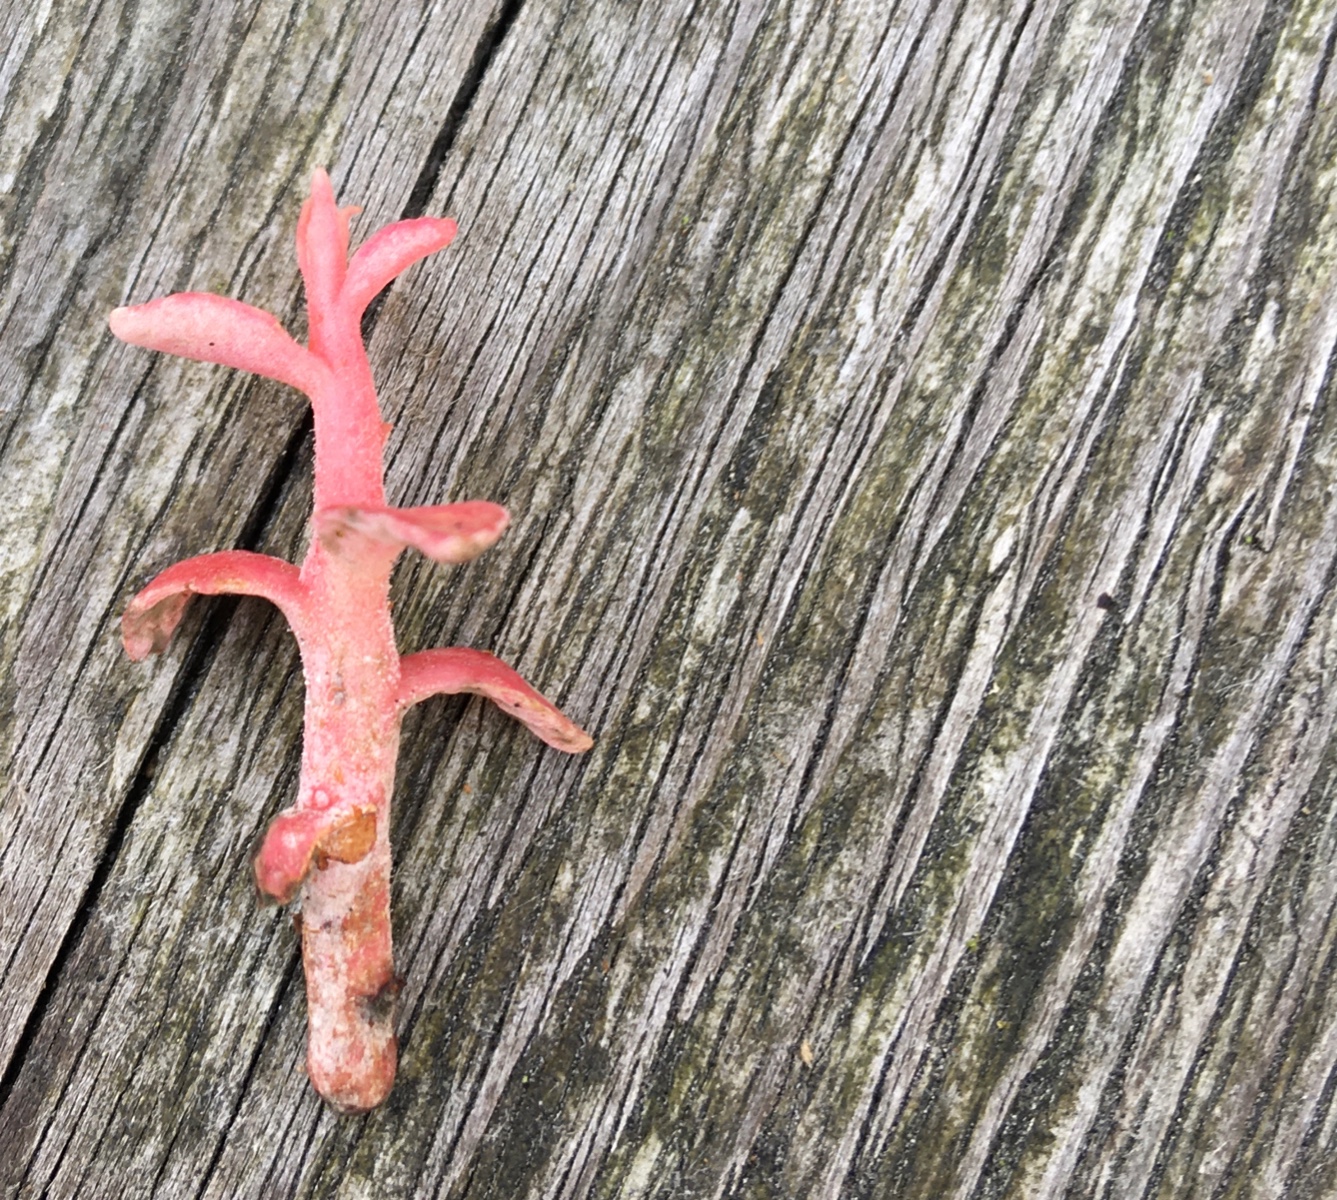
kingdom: Fungi
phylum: Basidiomycota
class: Exobasidiomycetes
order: Exobasidiales
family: Exobasidiaceae
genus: Exobasidium
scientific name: Exobasidium vaccinii
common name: tyttebærblad-bøllesvamp
